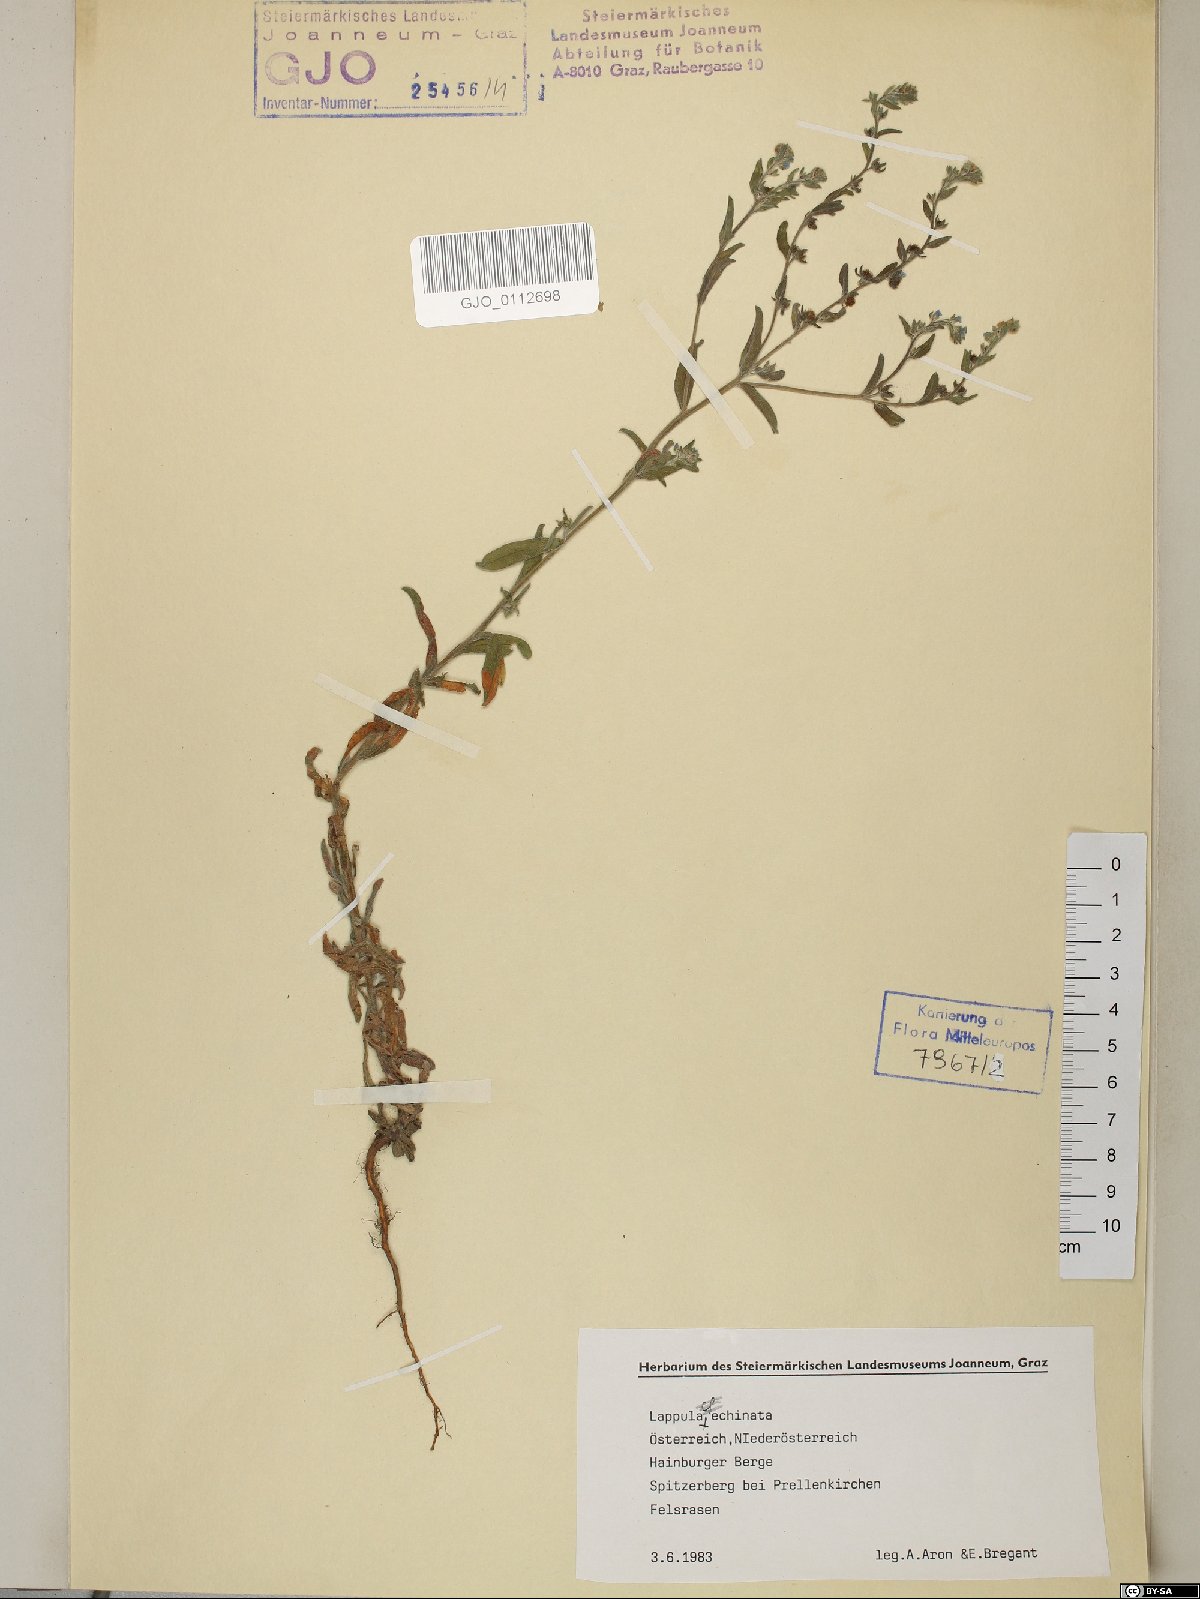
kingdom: Plantae
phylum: Tracheophyta
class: Magnoliopsida
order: Boraginales
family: Boraginaceae
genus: Lappula
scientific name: Lappula squarrosa
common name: European stickseed
